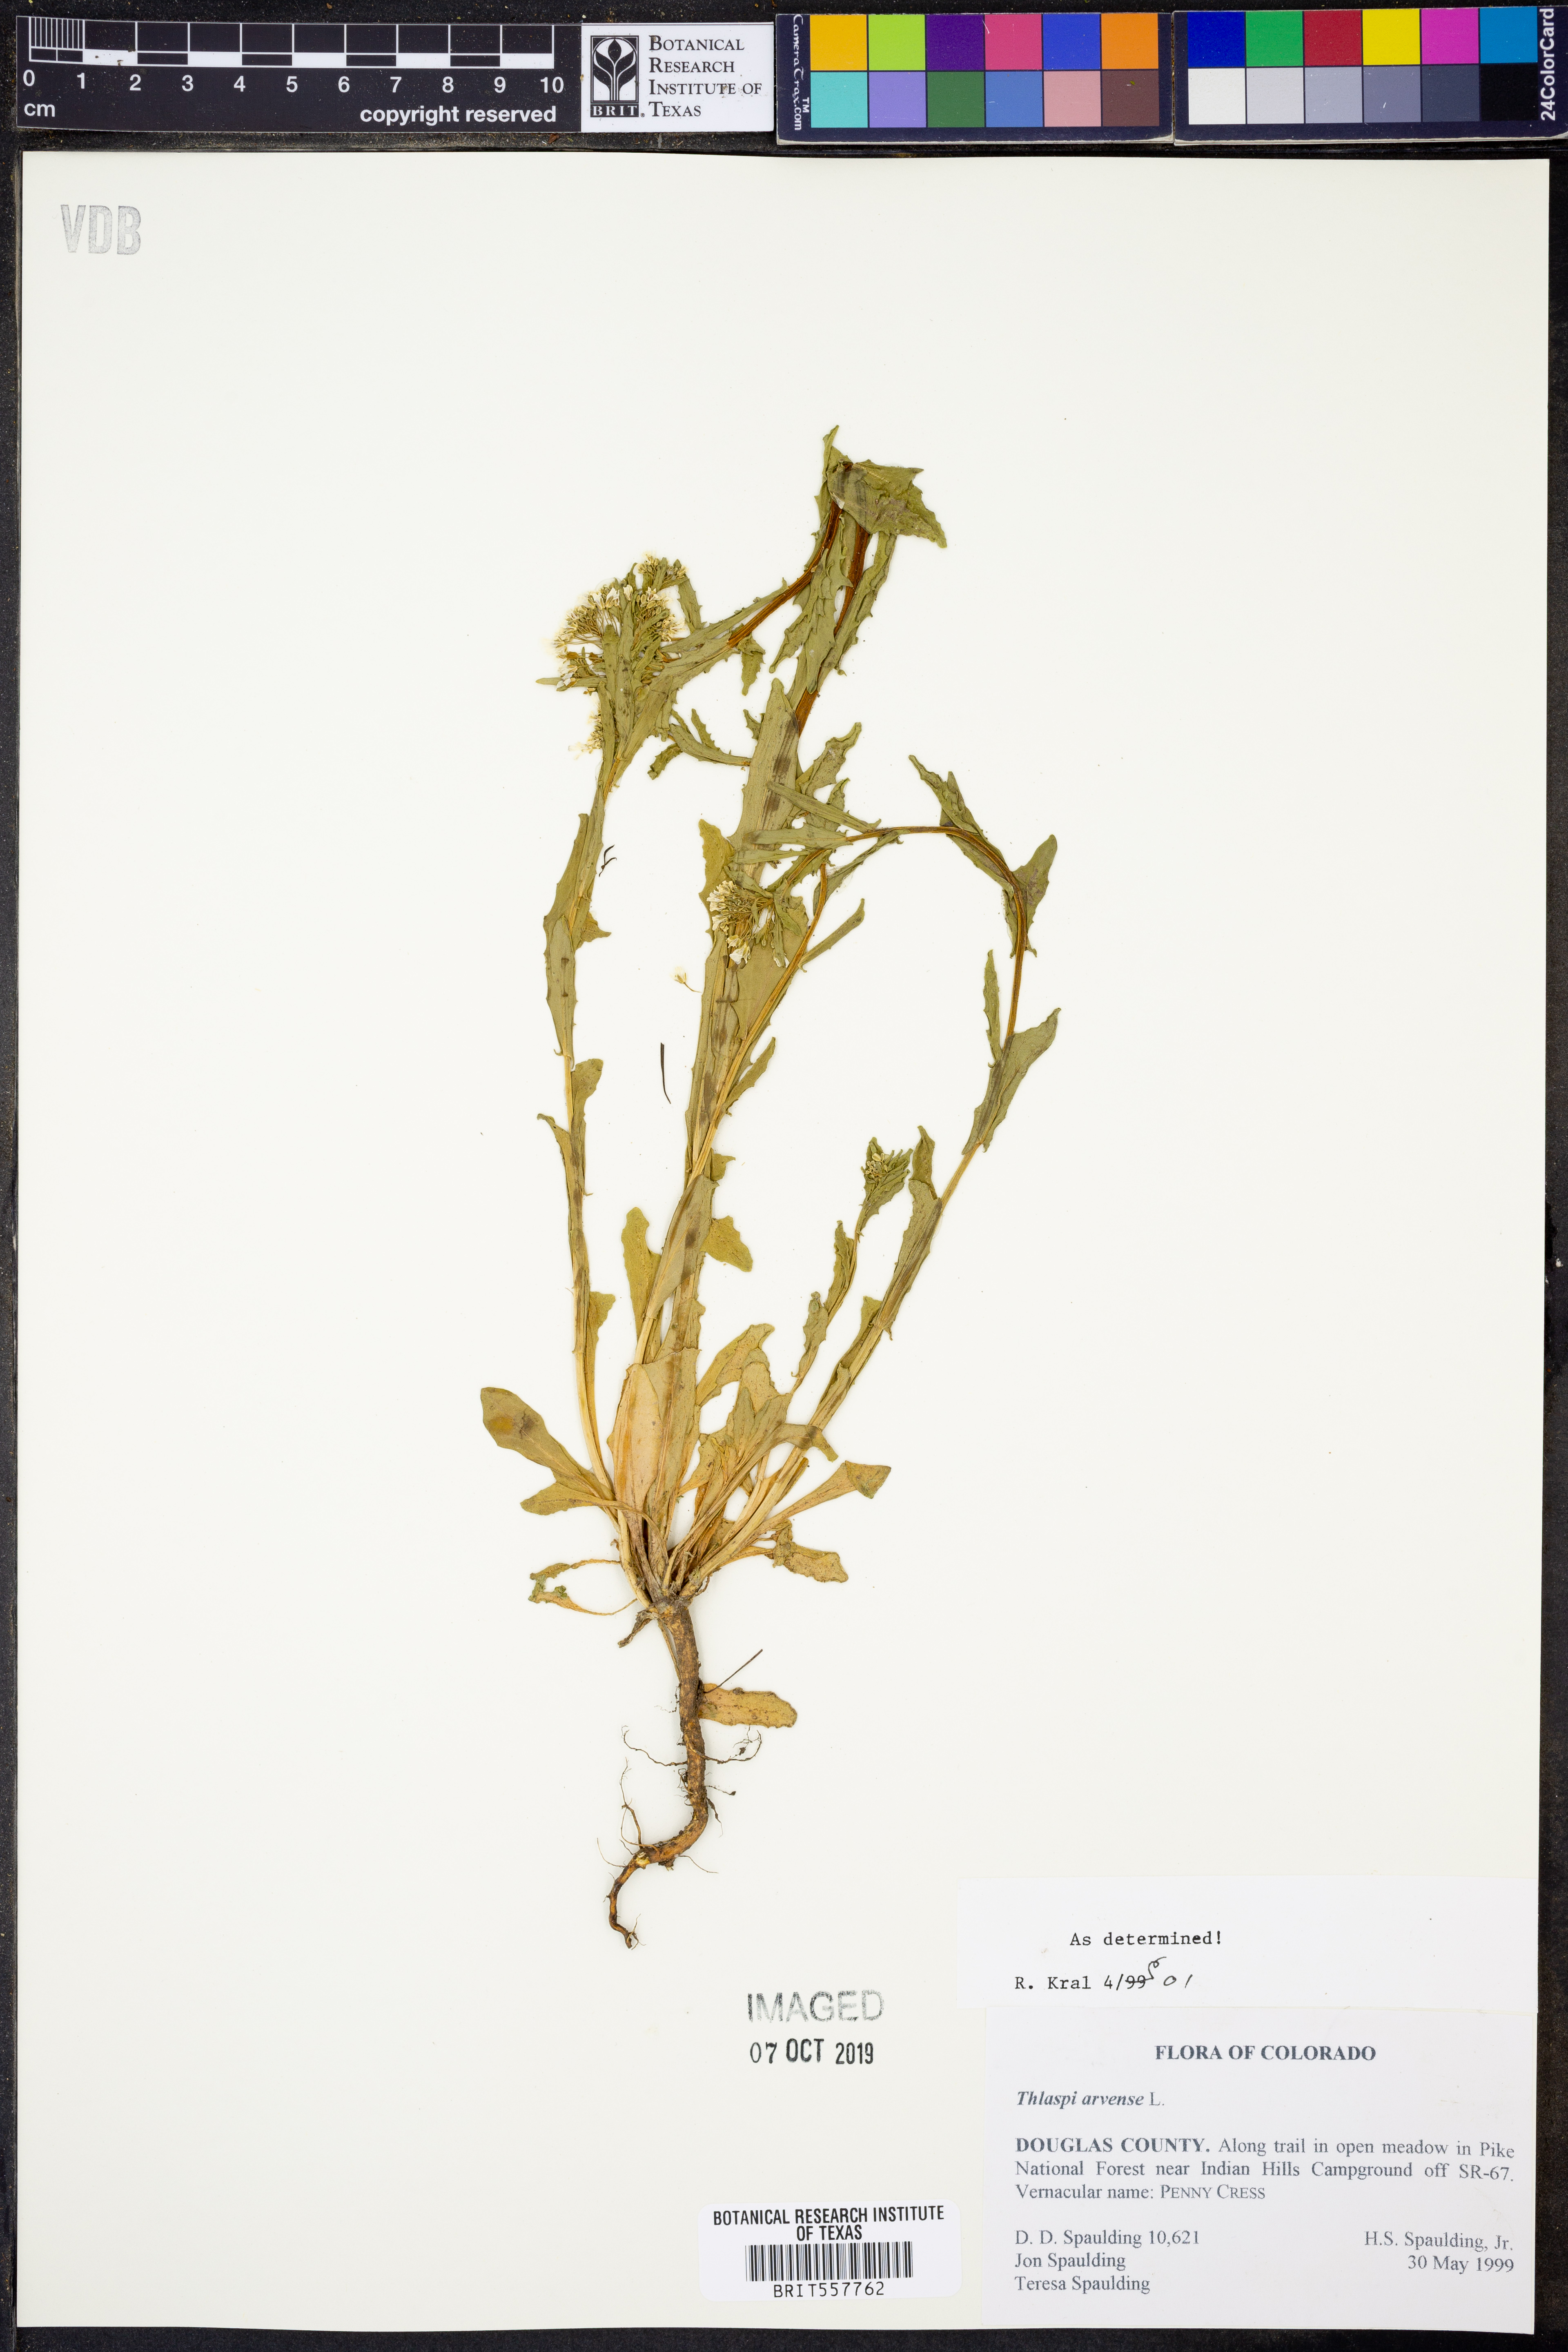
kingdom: Plantae
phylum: Tracheophyta
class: Magnoliopsida
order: Brassicales
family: Brassicaceae
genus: Thlaspi
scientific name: Thlaspi arvense
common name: Field pennycress
